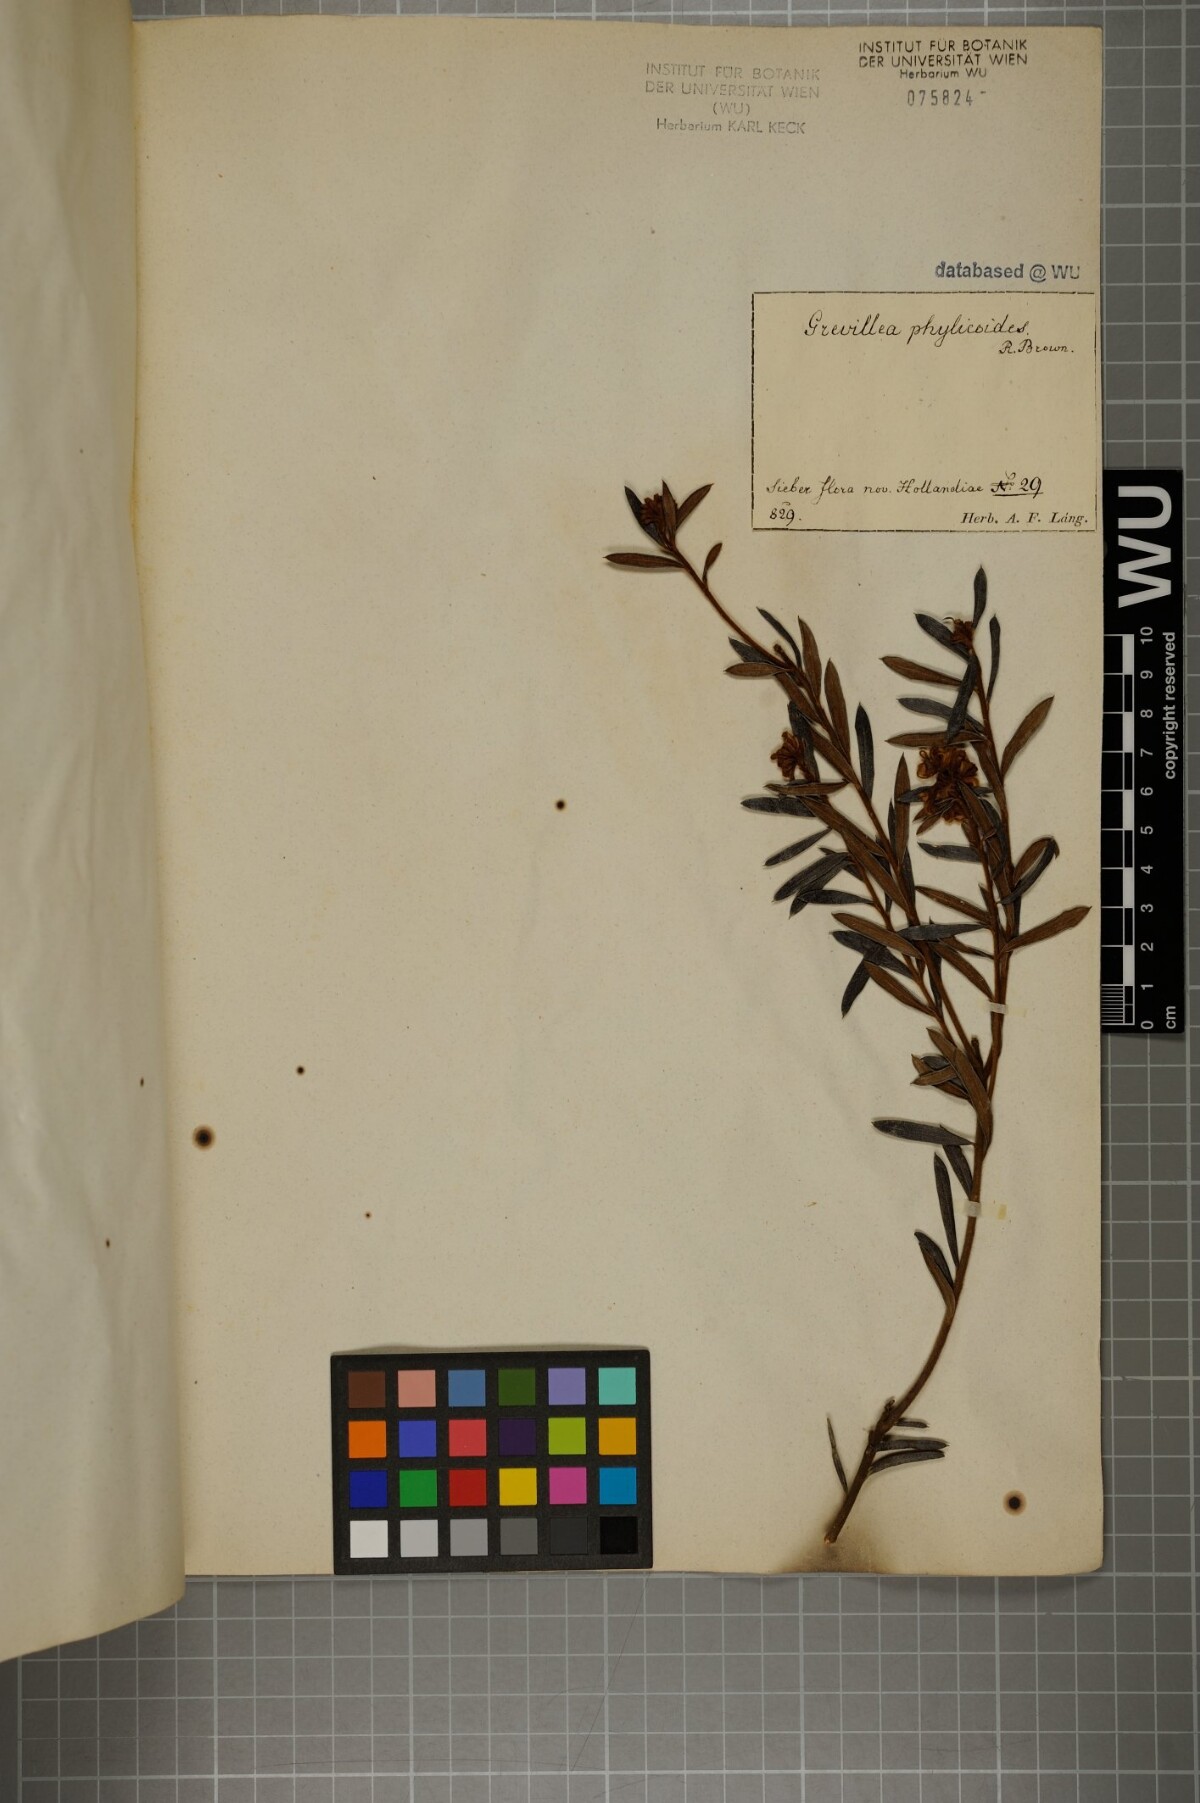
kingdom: Plantae
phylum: Tracheophyta
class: Magnoliopsida
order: Proteales
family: Proteaceae
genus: Grevillea
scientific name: Grevillea phylicoides
